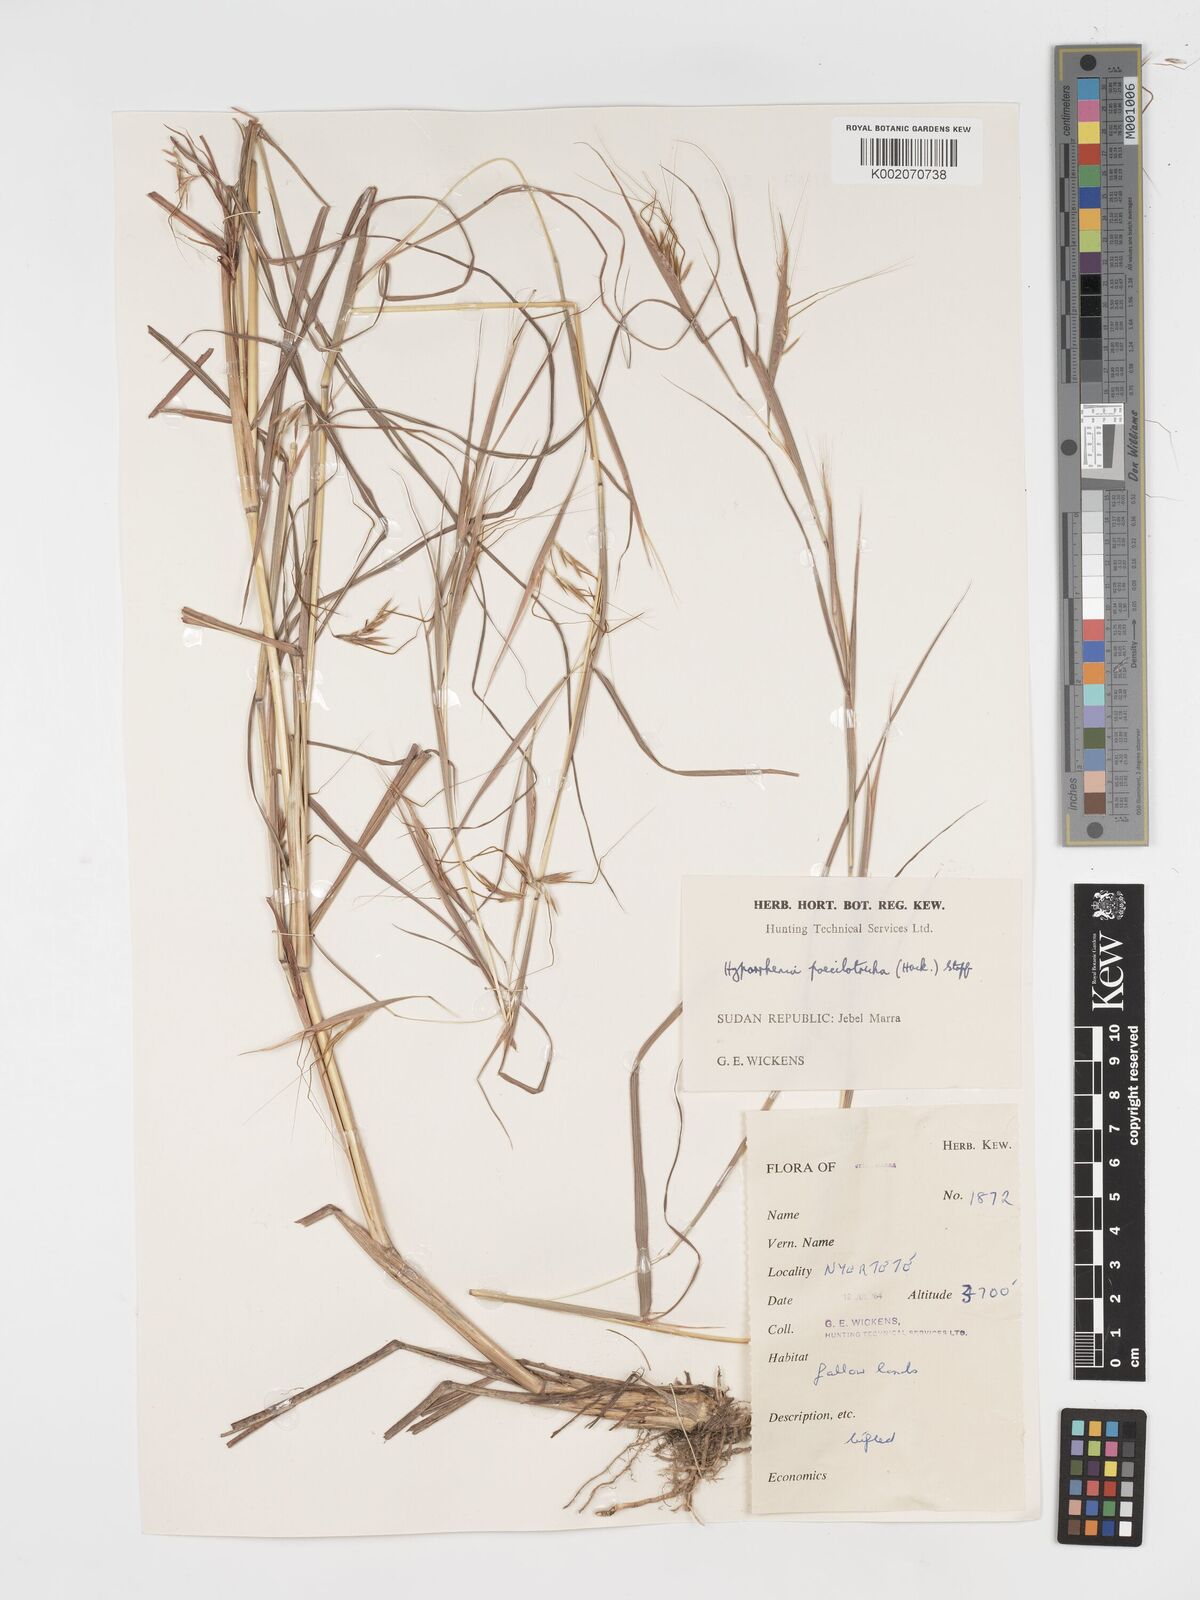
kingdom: Plantae
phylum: Tracheophyta
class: Liliopsida
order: Poales
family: Poaceae
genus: Hyparrhenia
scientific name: Hyparrhenia poecilotricha
